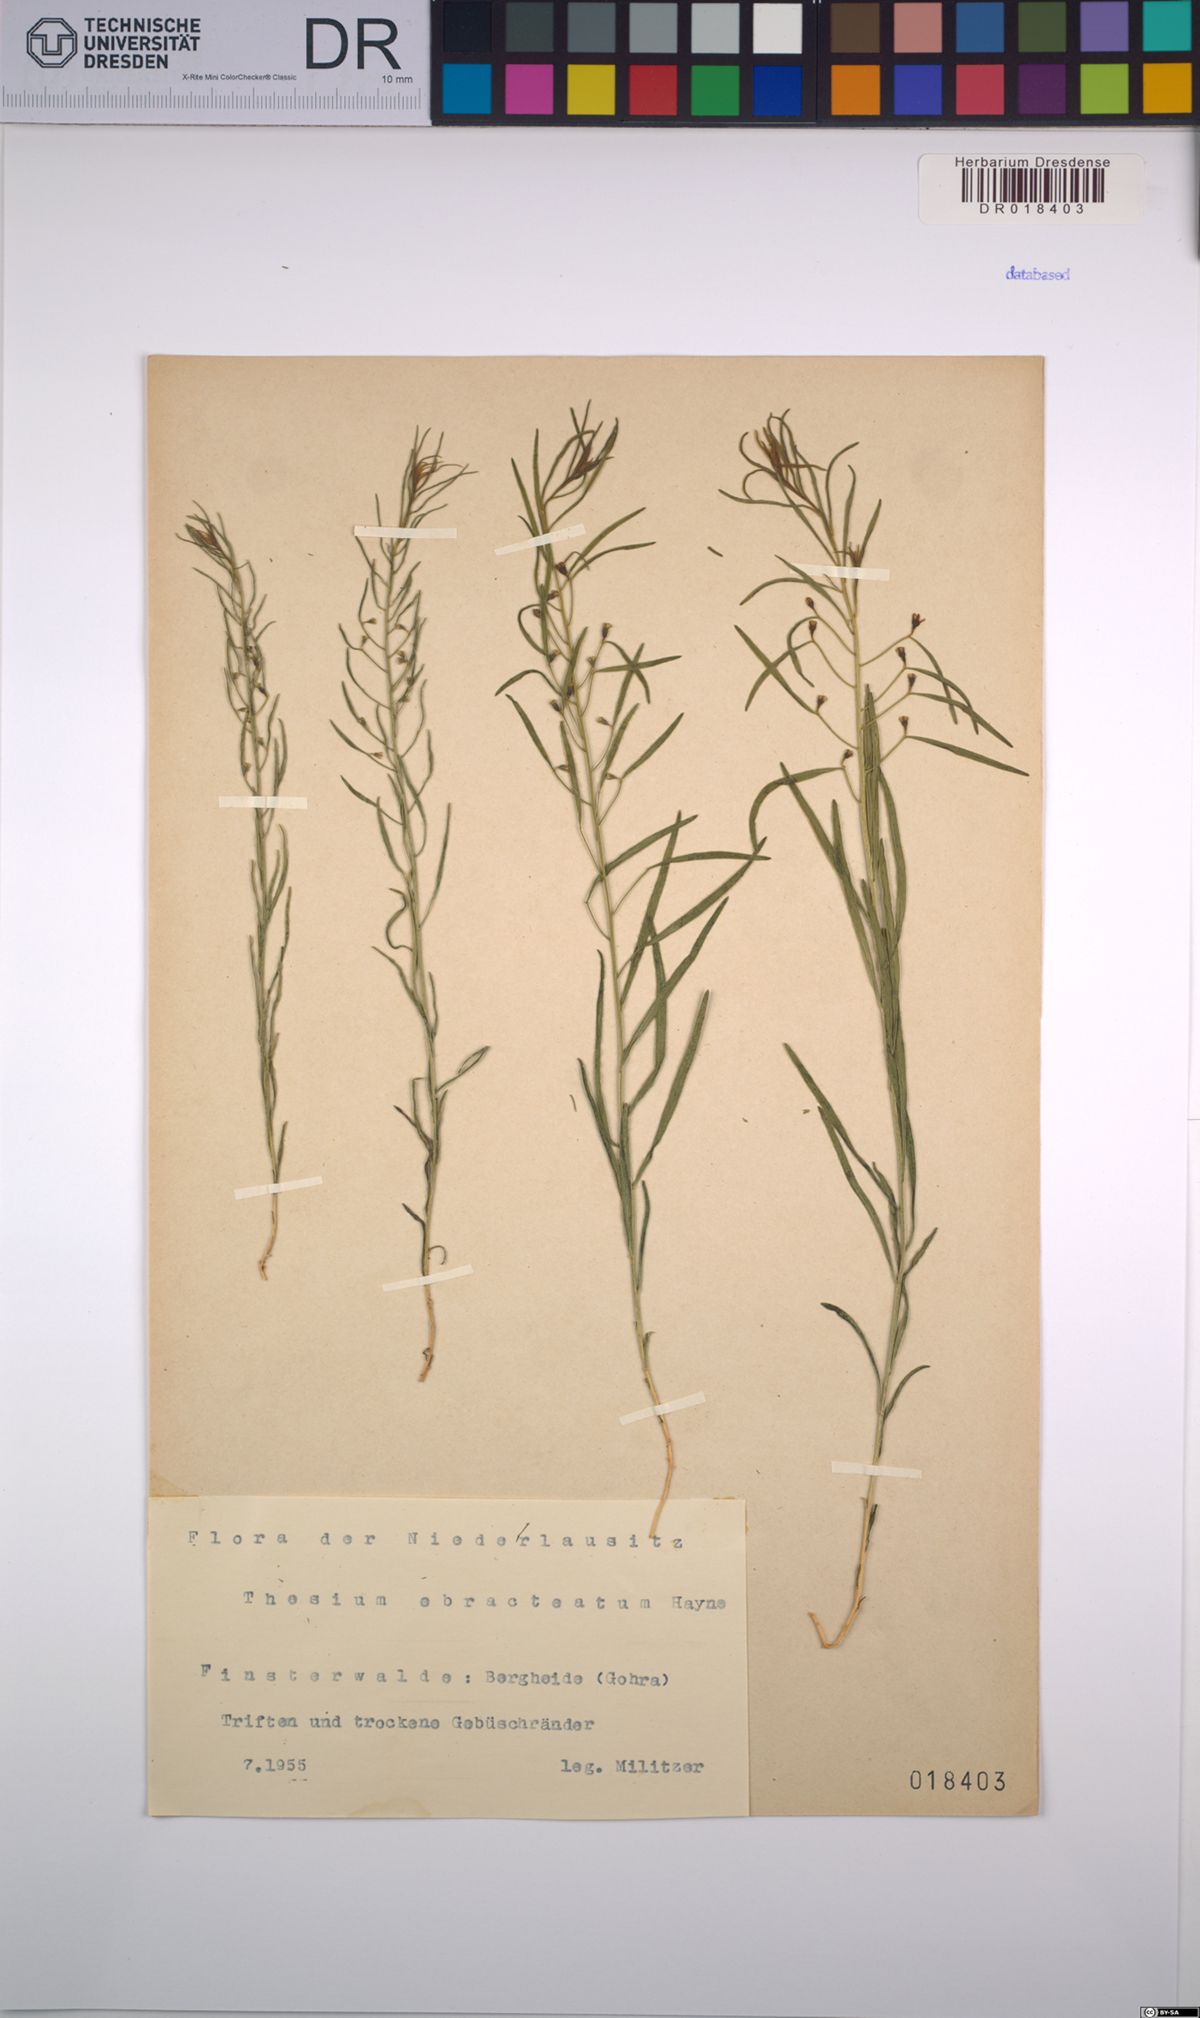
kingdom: Plantae
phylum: Tracheophyta
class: Magnoliopsida
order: Santalales
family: Thesiaceae
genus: Thesium
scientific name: Thesium ebracteatum
